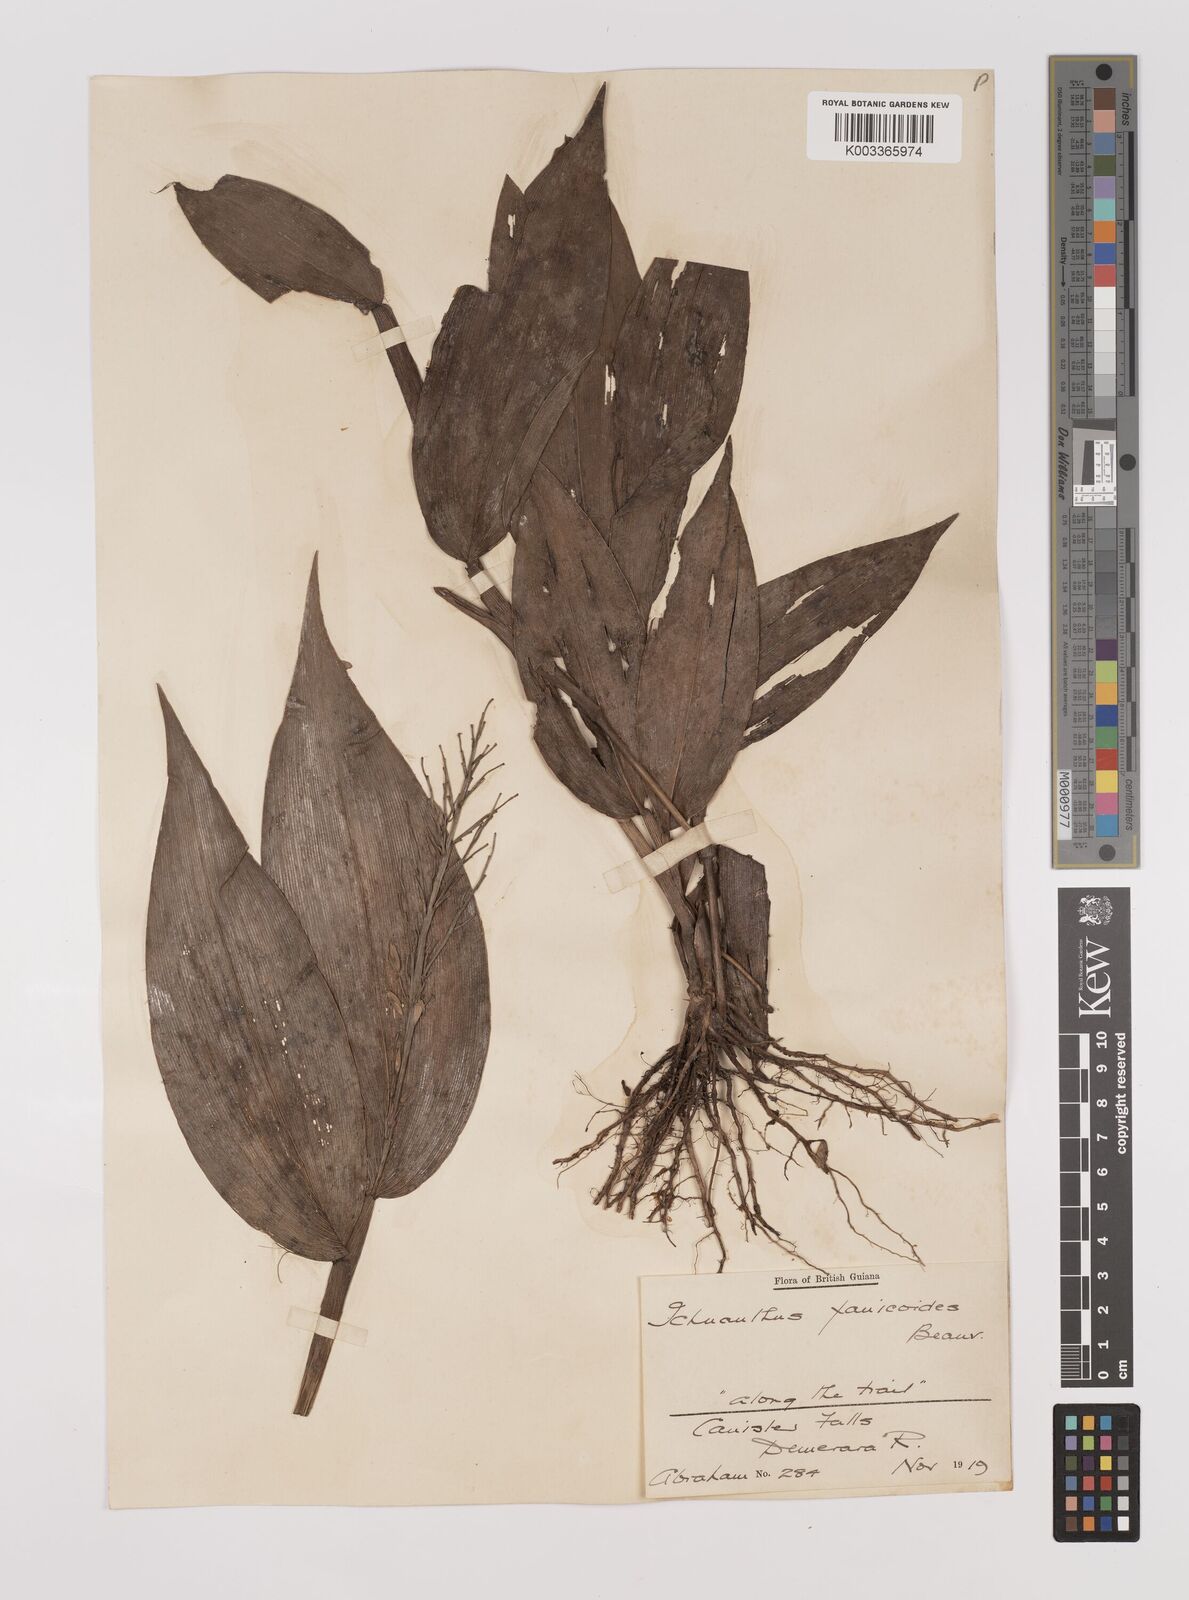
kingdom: Plantae
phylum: Tracheophyta
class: Liliopsida
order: Poales
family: Poaceae
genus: Ichnanthus
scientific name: Ichnanthus panicoides
